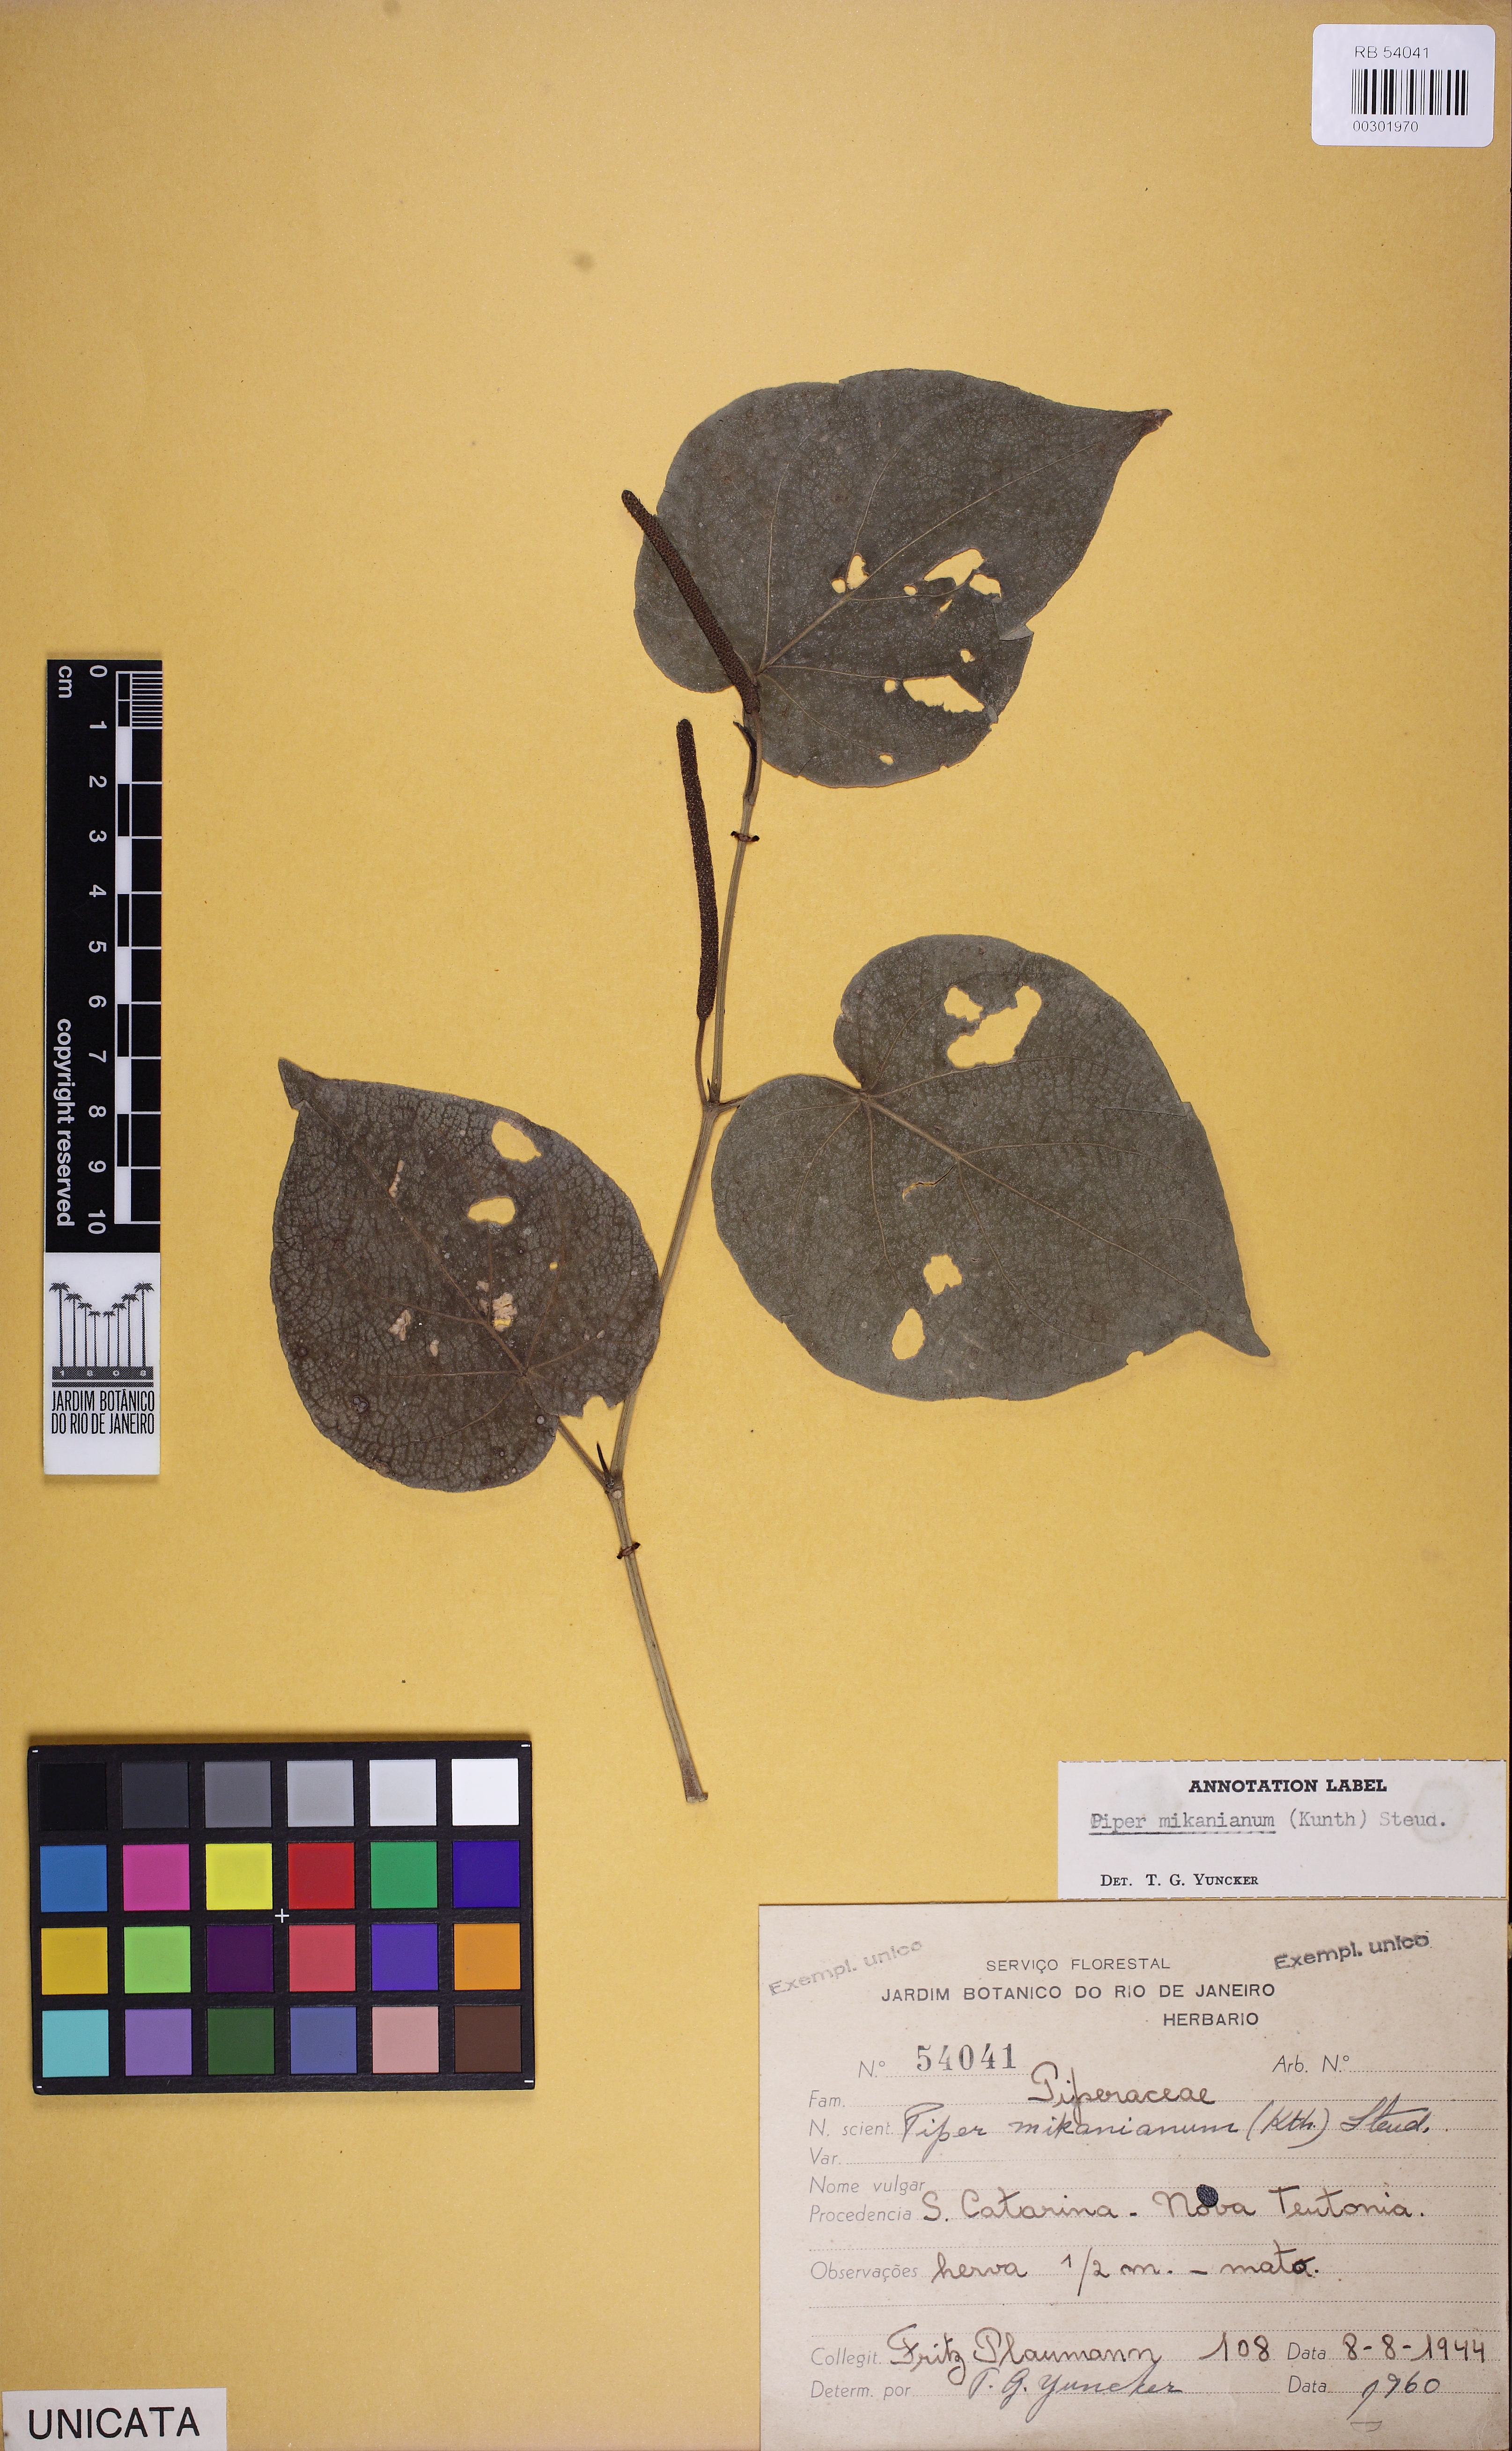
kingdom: Plantae
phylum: Tracheophyta
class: Magnoliopsida
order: Piperales
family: Piperaceae
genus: Piper
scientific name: Piper mikanianum
